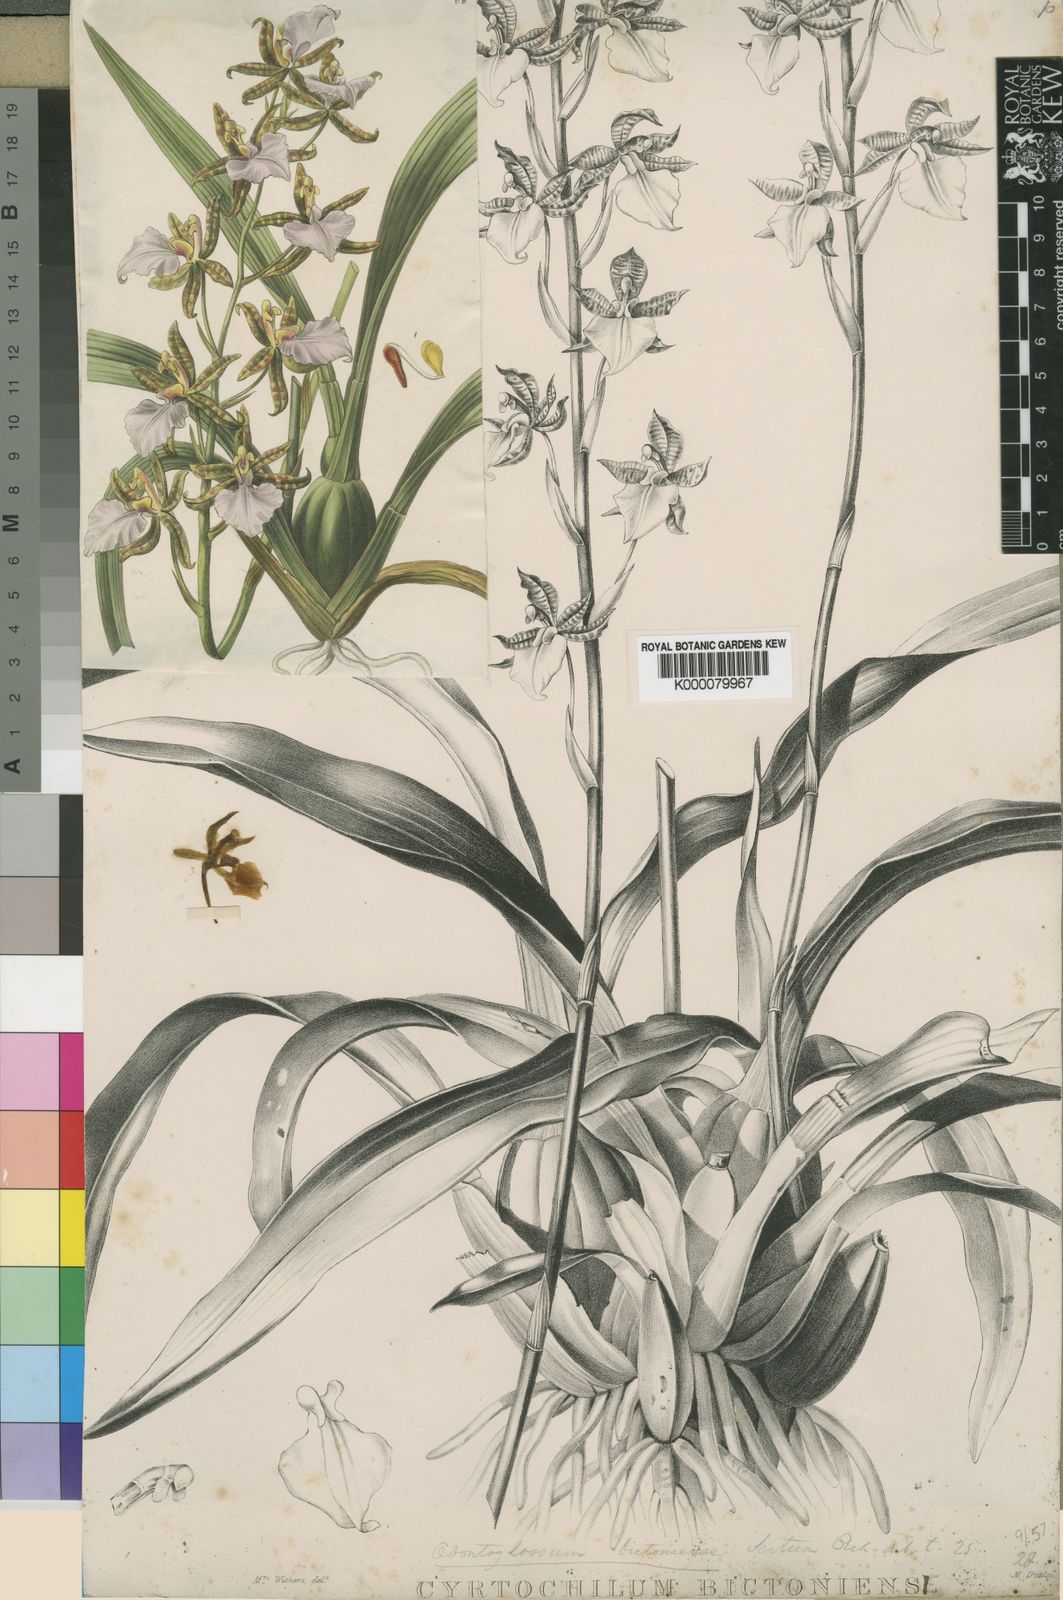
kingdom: Plantae
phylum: Tracheophyta
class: Liliopsida
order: Asparagales
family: Orchidaceae
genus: Rhynchostele
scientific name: Rhynchostele
